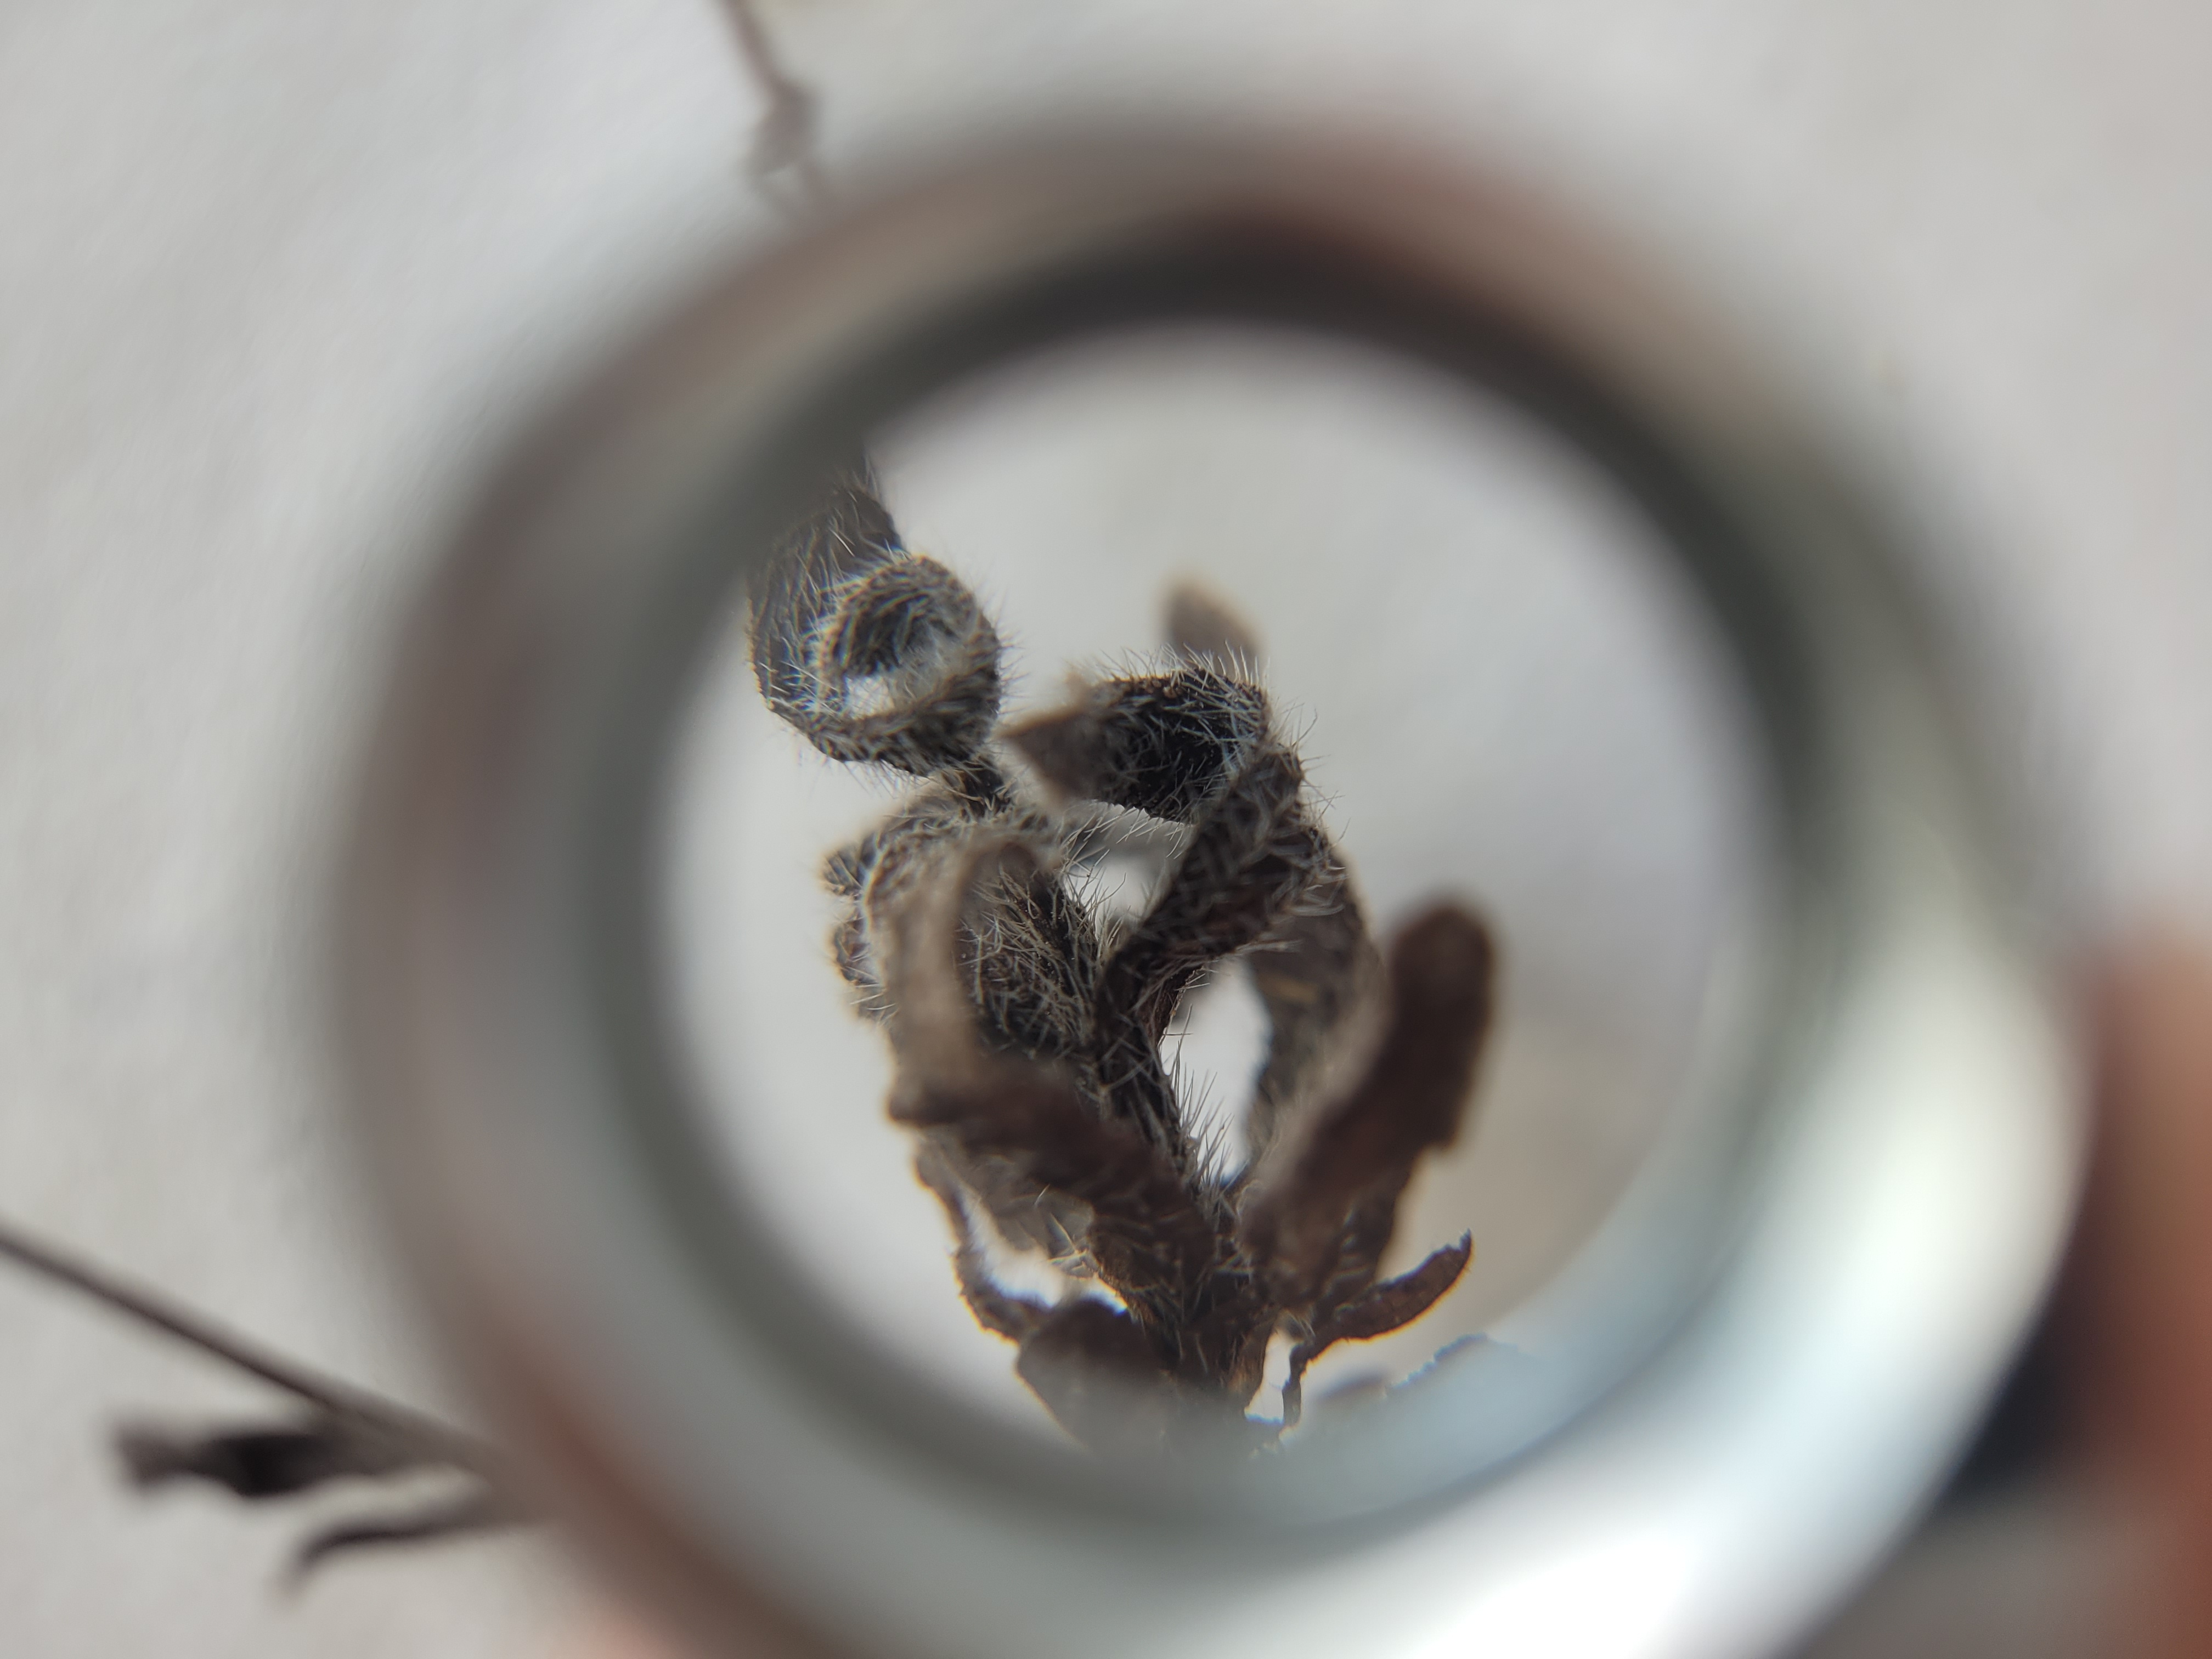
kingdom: Plantae
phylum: Tracheophyta
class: Magnoliopsida
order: Boraginales
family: Boraginaceae
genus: Myosotis
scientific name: Myosotis discolor
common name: Forskelligfarvet forglemmigej
